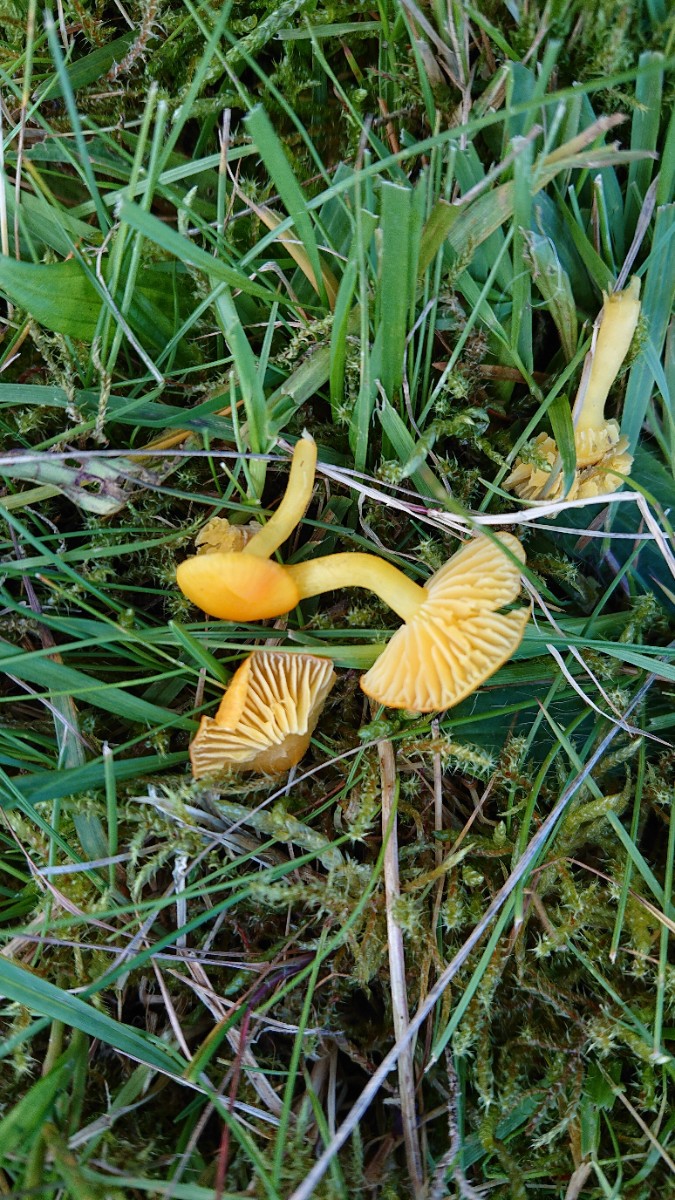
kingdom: Fungi
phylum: Basidiomycota
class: Agaricomycetes
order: Agaricales
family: Hygrophoraceae
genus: Hygrocybe
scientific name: Hygrocybe ceracea
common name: voksgul vokshat
